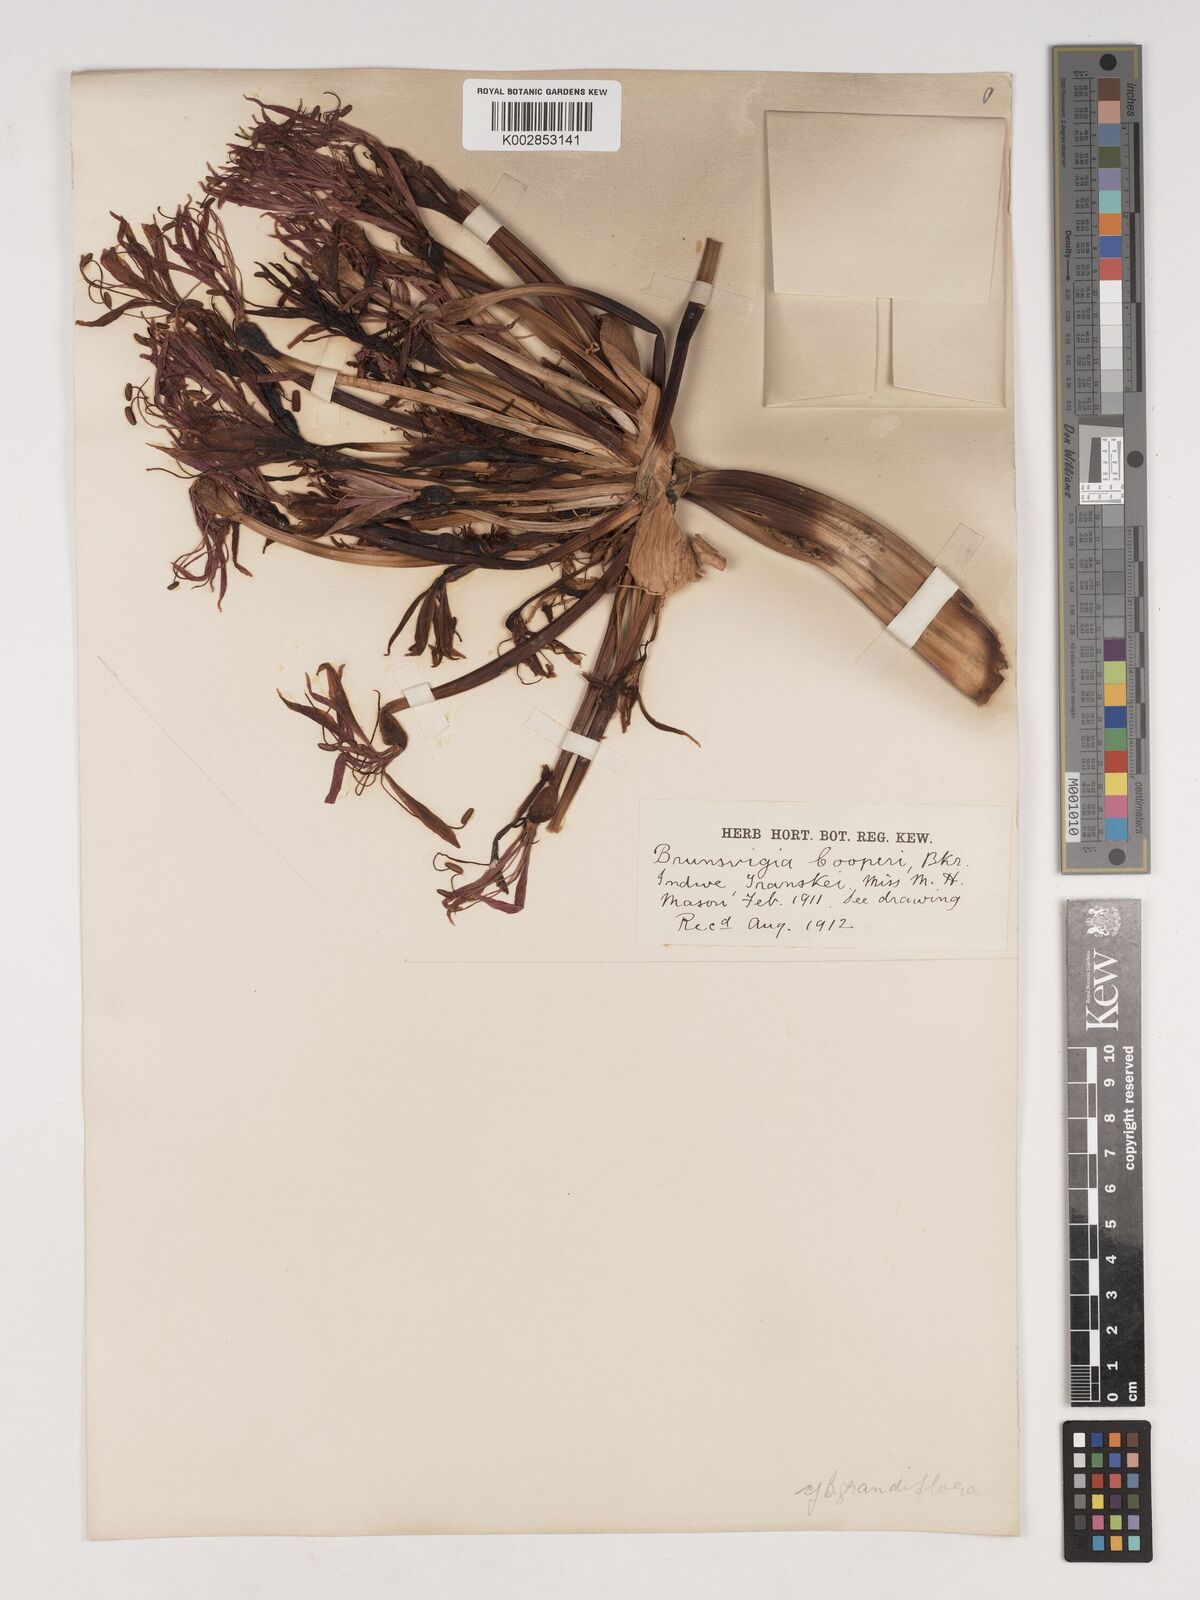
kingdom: Plantae
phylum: Tracheophyta
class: Liliopsida
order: Asparagales
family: Amaryllidaceae
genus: Brunsvigia
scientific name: Brunsvigia grandiflora
